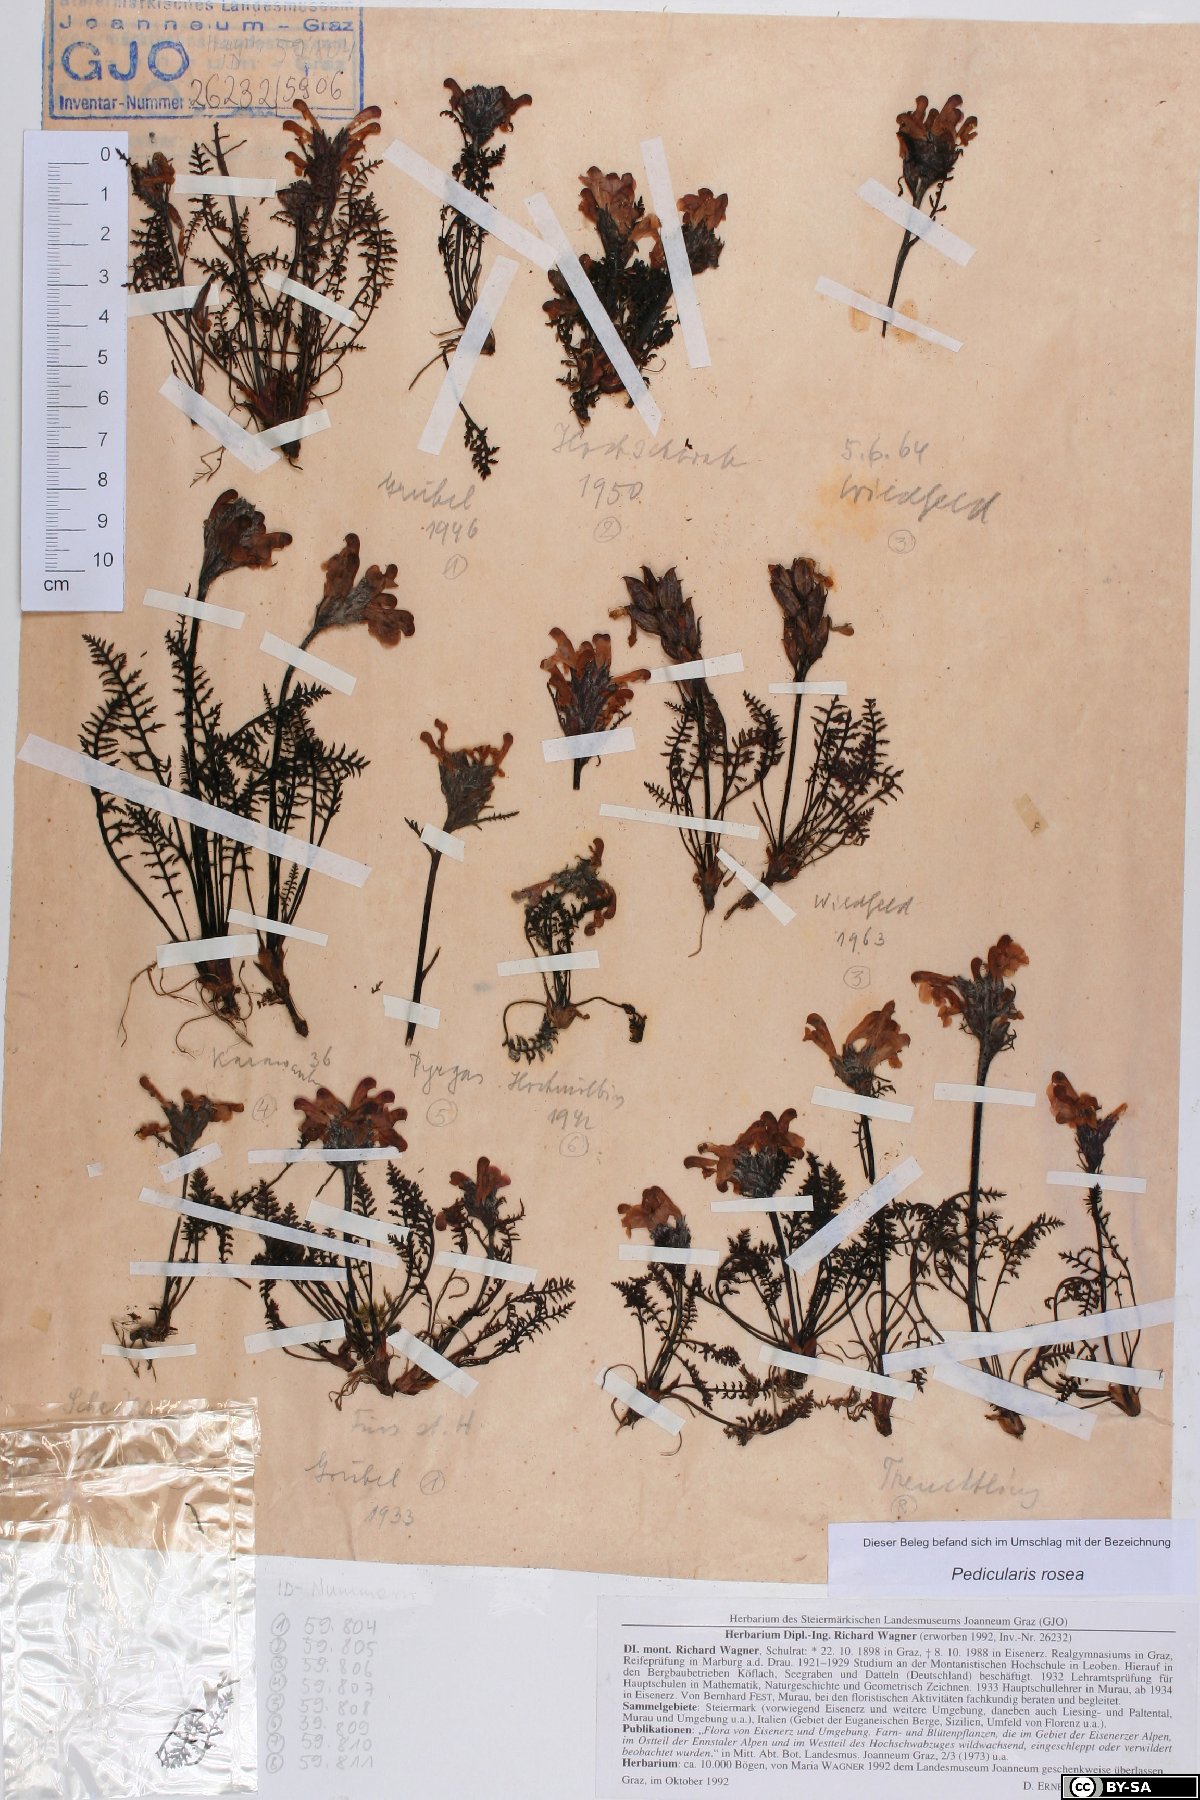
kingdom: Plantae
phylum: Tracheophyta
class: Magnoliopsida
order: Lamiales
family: Orobanchaceae
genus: Pedicularis
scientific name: Pedicularis rosea
